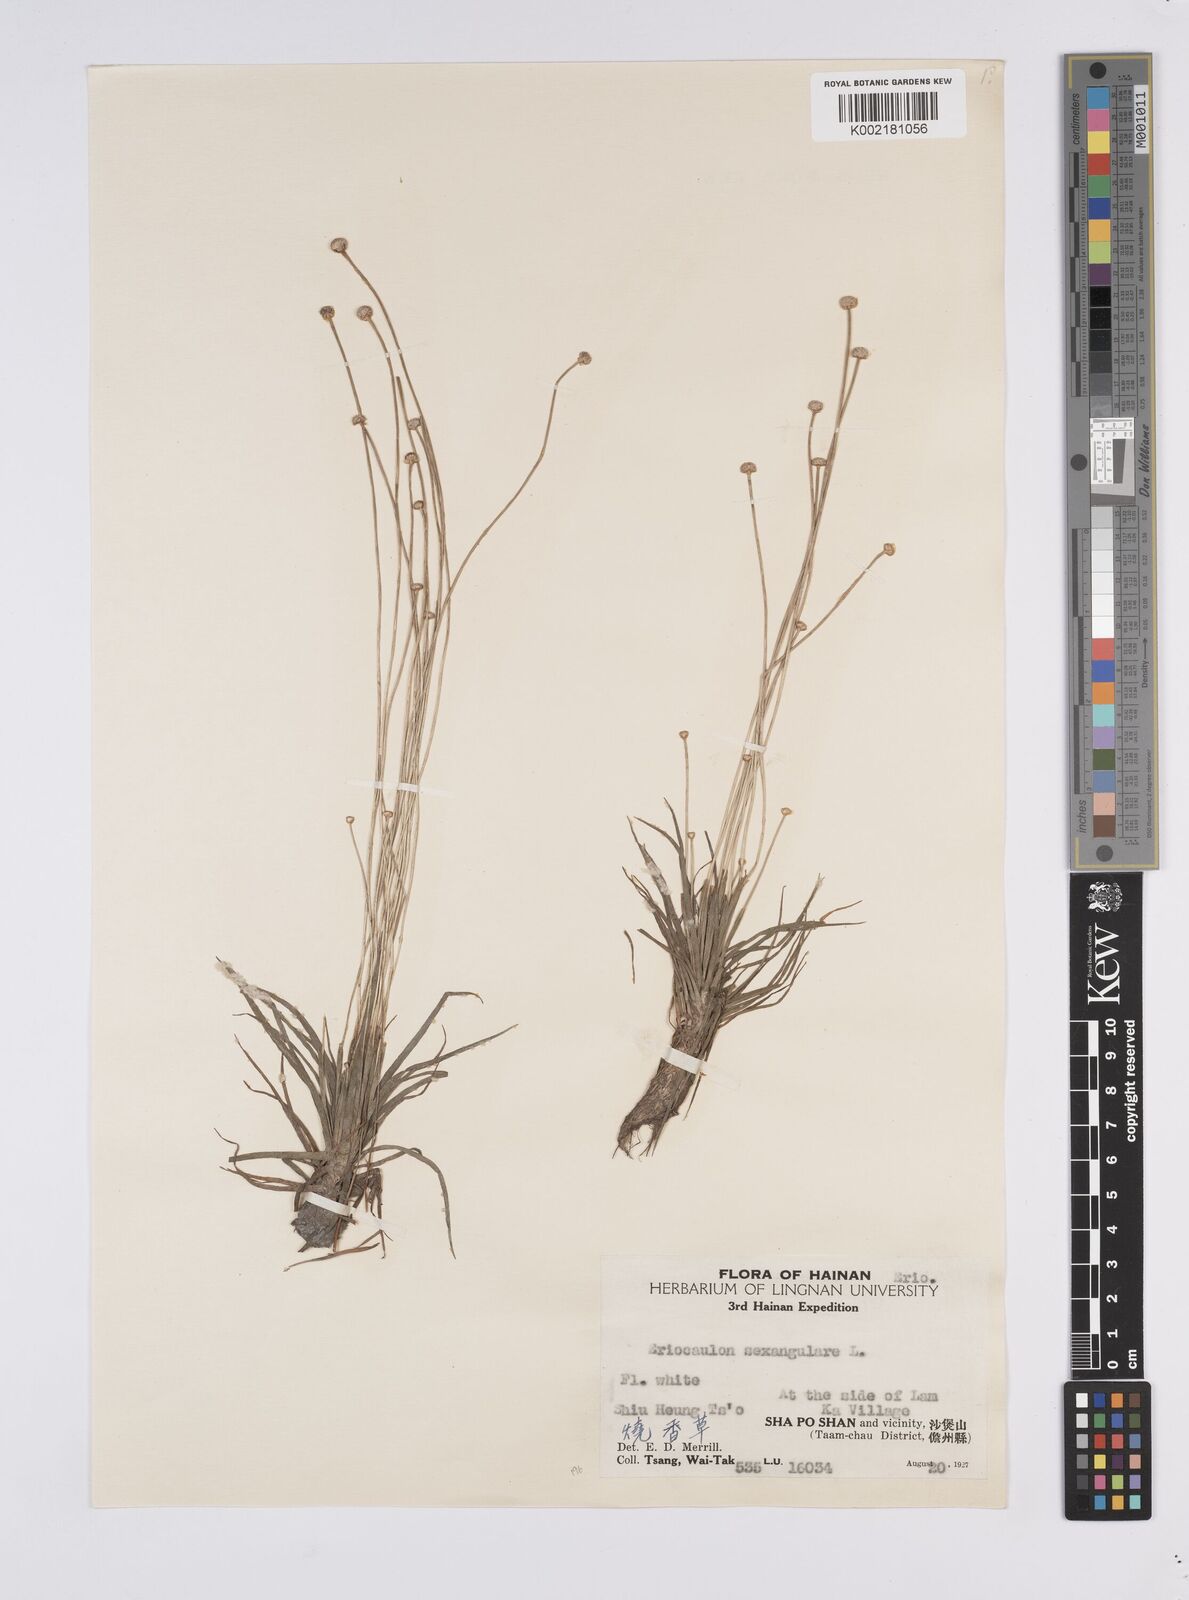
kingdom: Plantae
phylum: Tracheophyta
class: Liliopsida
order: Poales
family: Eriocaulaceae
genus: Eriocaulon
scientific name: Eriocaulon sexangulare
